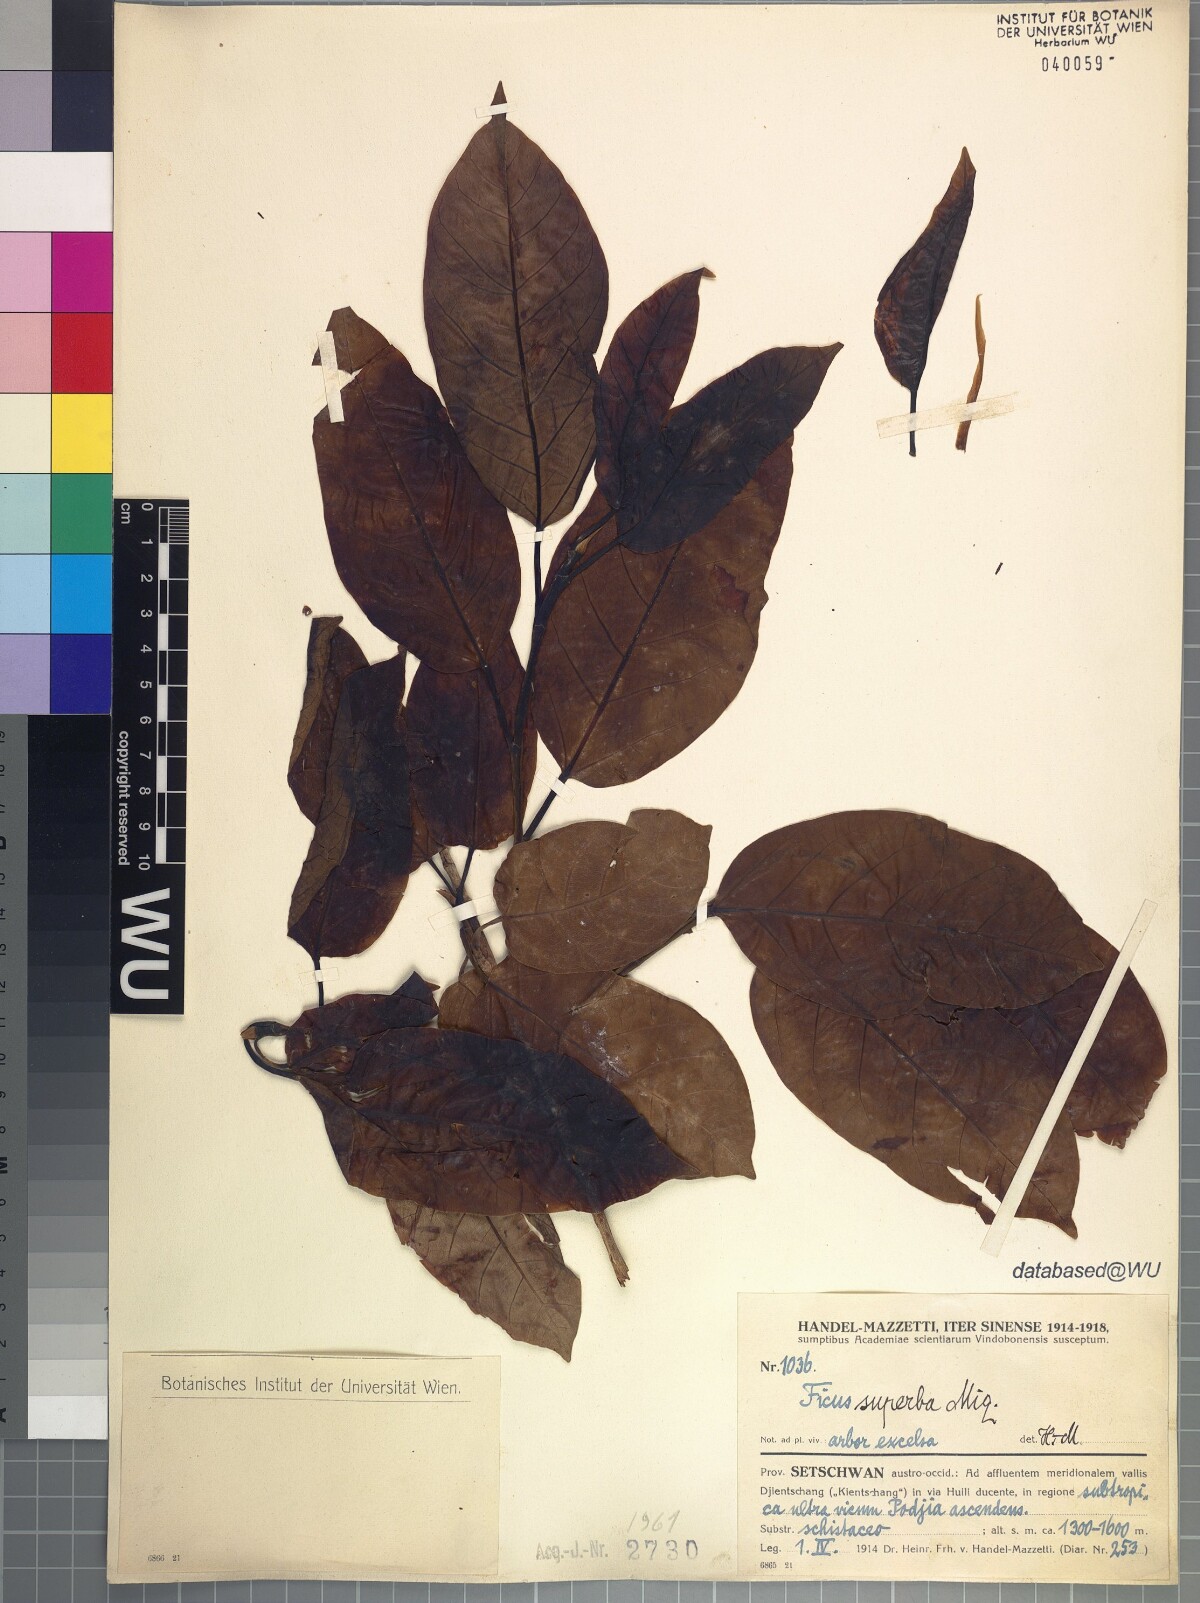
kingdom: Plantae
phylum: Tracheophyta
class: Magnoliopsida
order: Rosales
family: Moraceae
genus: Ficus
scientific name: Ficus superba
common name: Cedar fig
